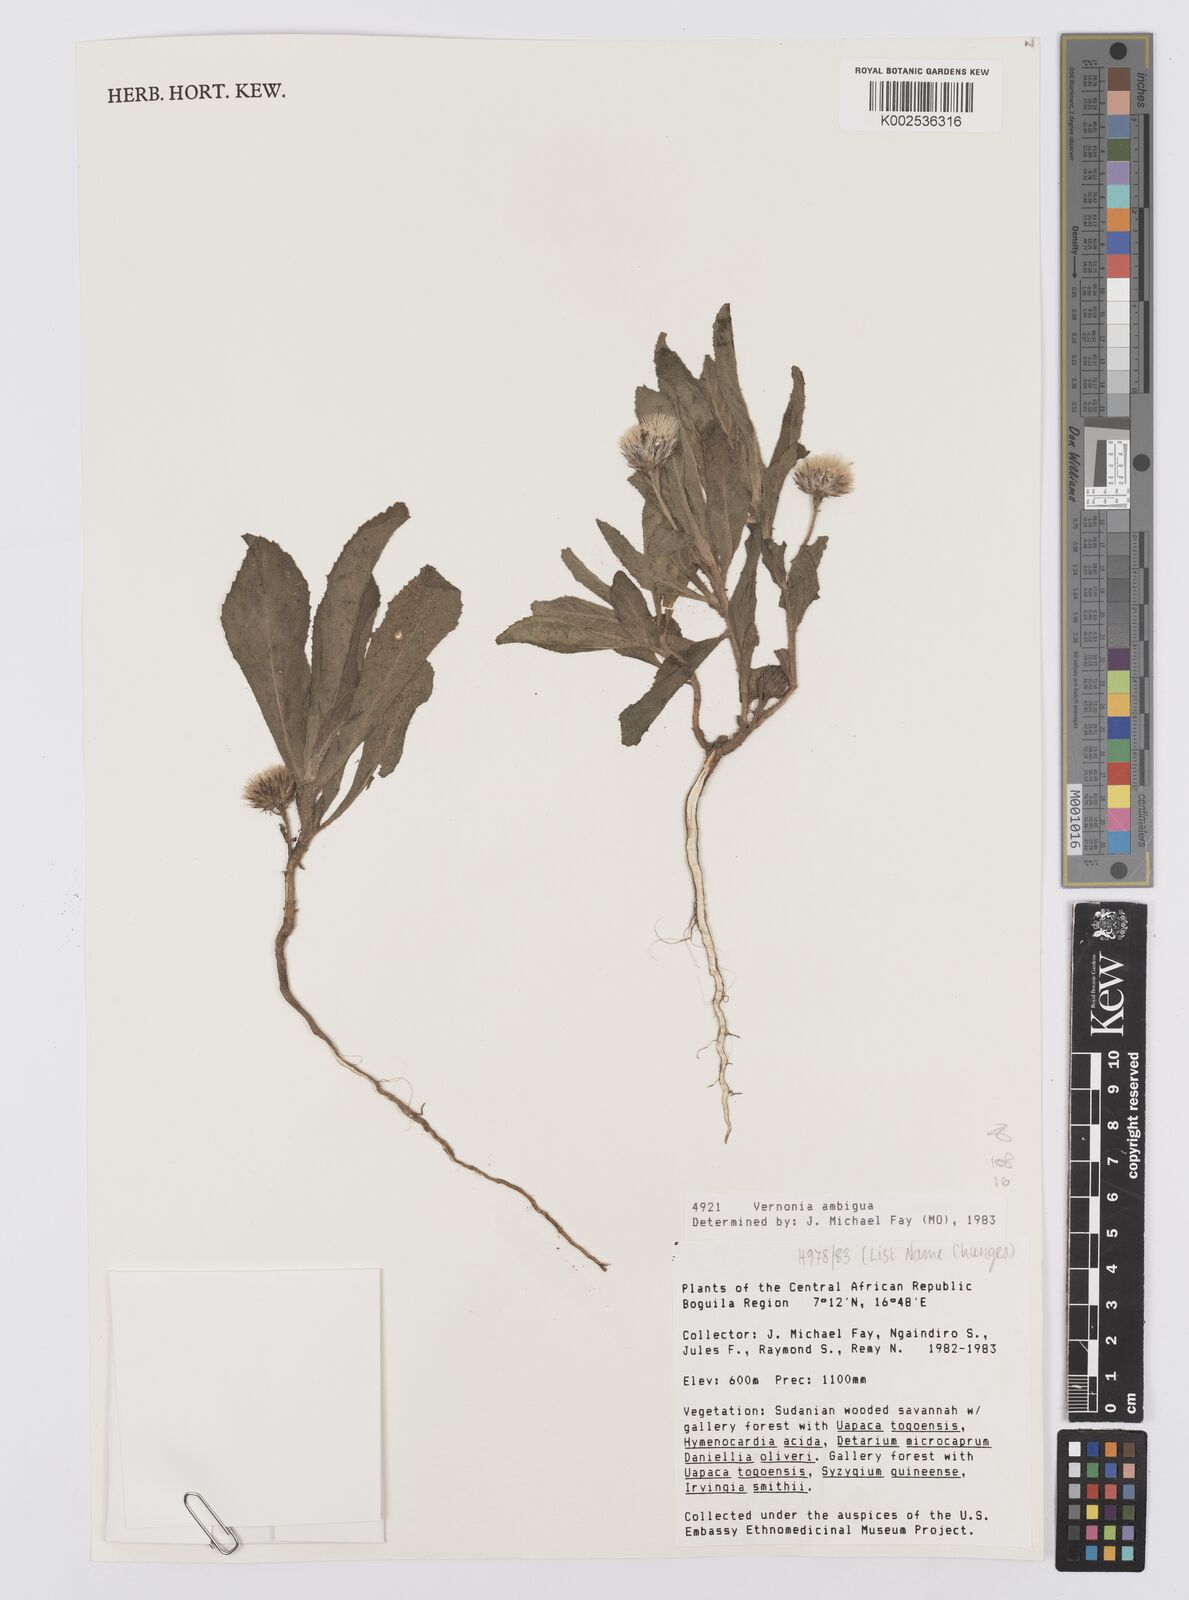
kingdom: Plantae
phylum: Tracheophyta
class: Magnoliopsida
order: Asterales
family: Asteraceae
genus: Vernoniastrum
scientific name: Vernoniastrum ambiguum
